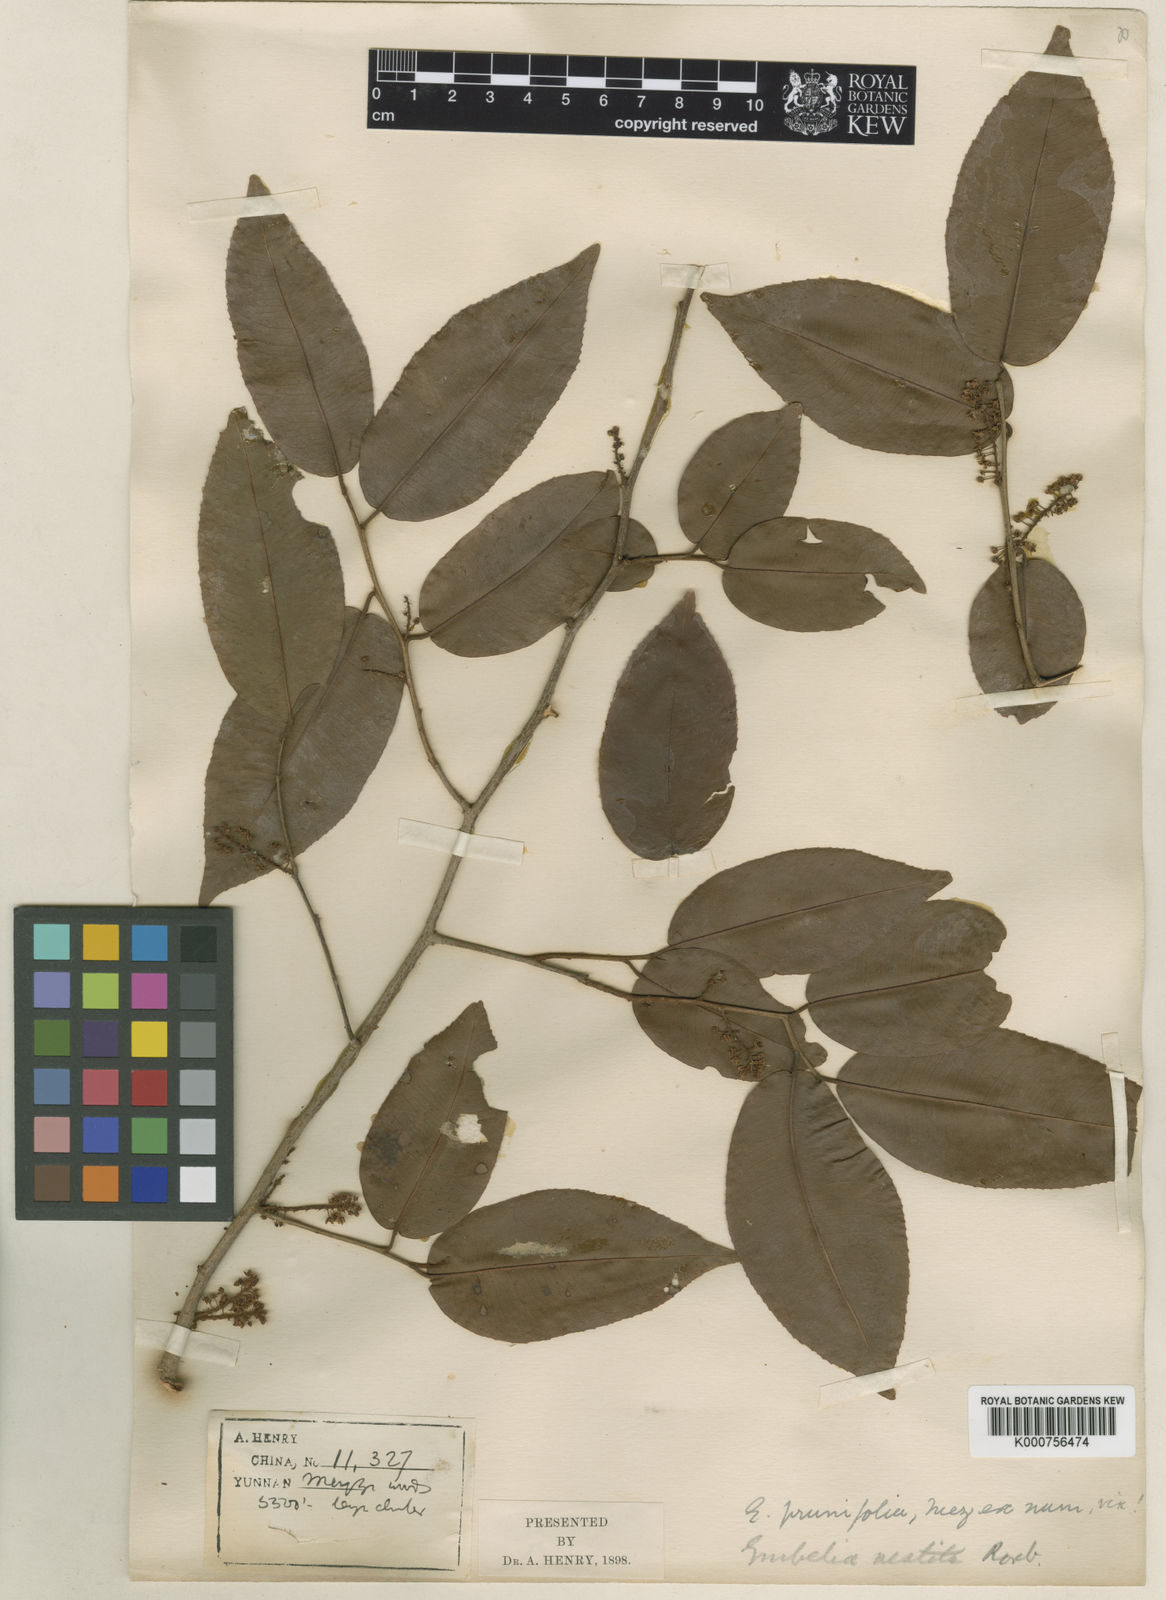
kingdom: Plantae
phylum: Tracheophyta
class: Magnoliopsida
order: Ericales
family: Primulaceae
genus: Embelia
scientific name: Embelia vestita
